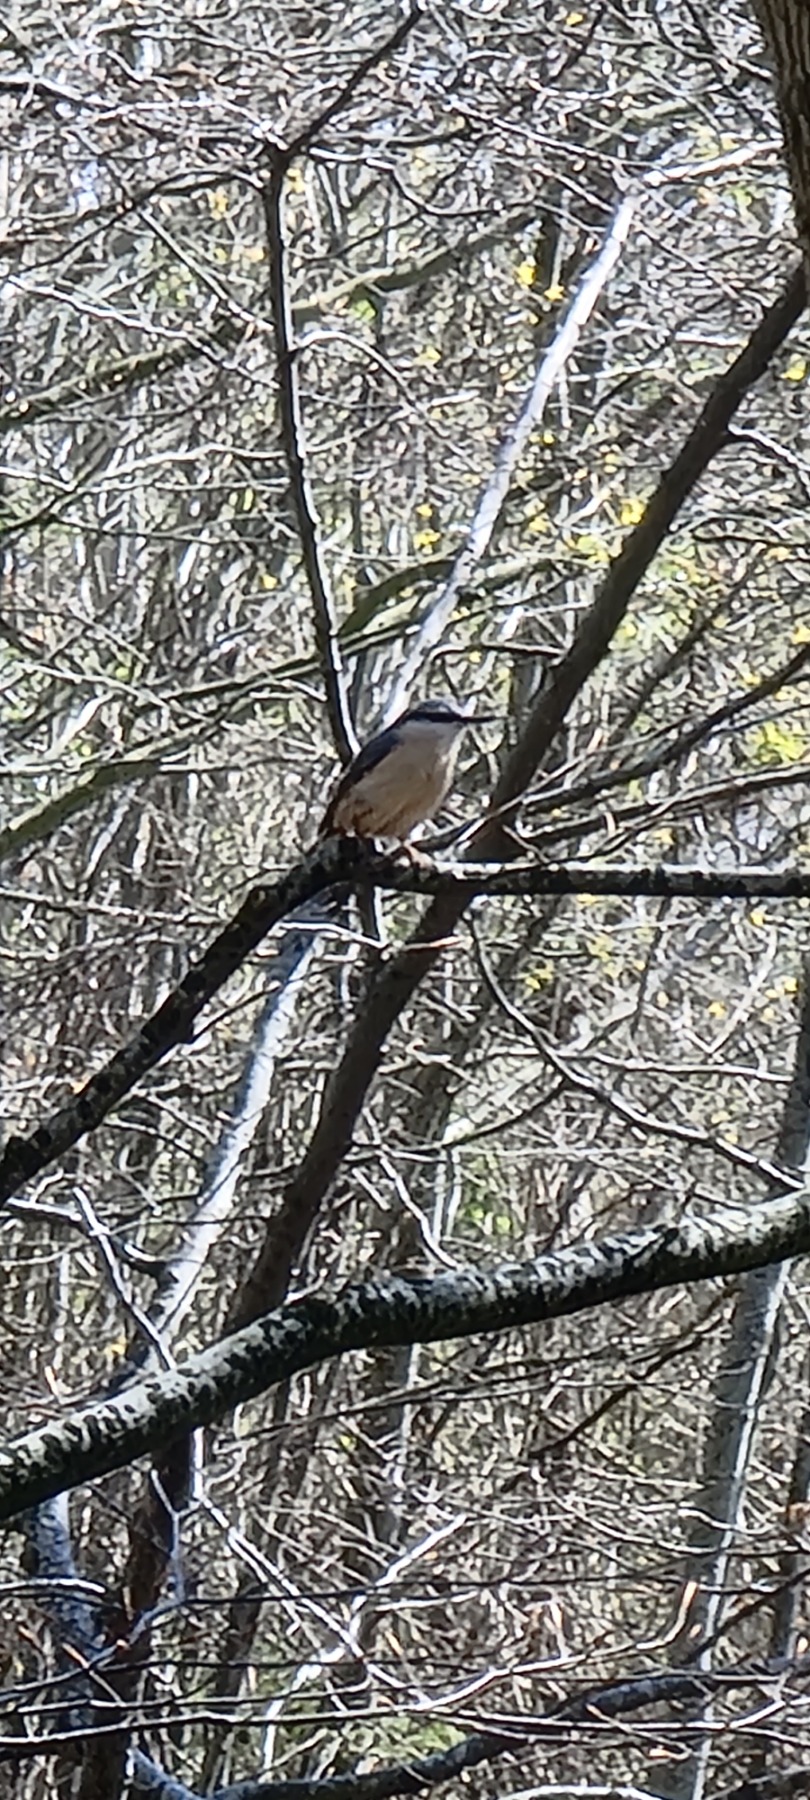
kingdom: Animalia
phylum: Chordata
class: Aves
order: Passeriformes
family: Sittidae
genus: Sitta
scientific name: Sitta europaea
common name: Spætmejse
